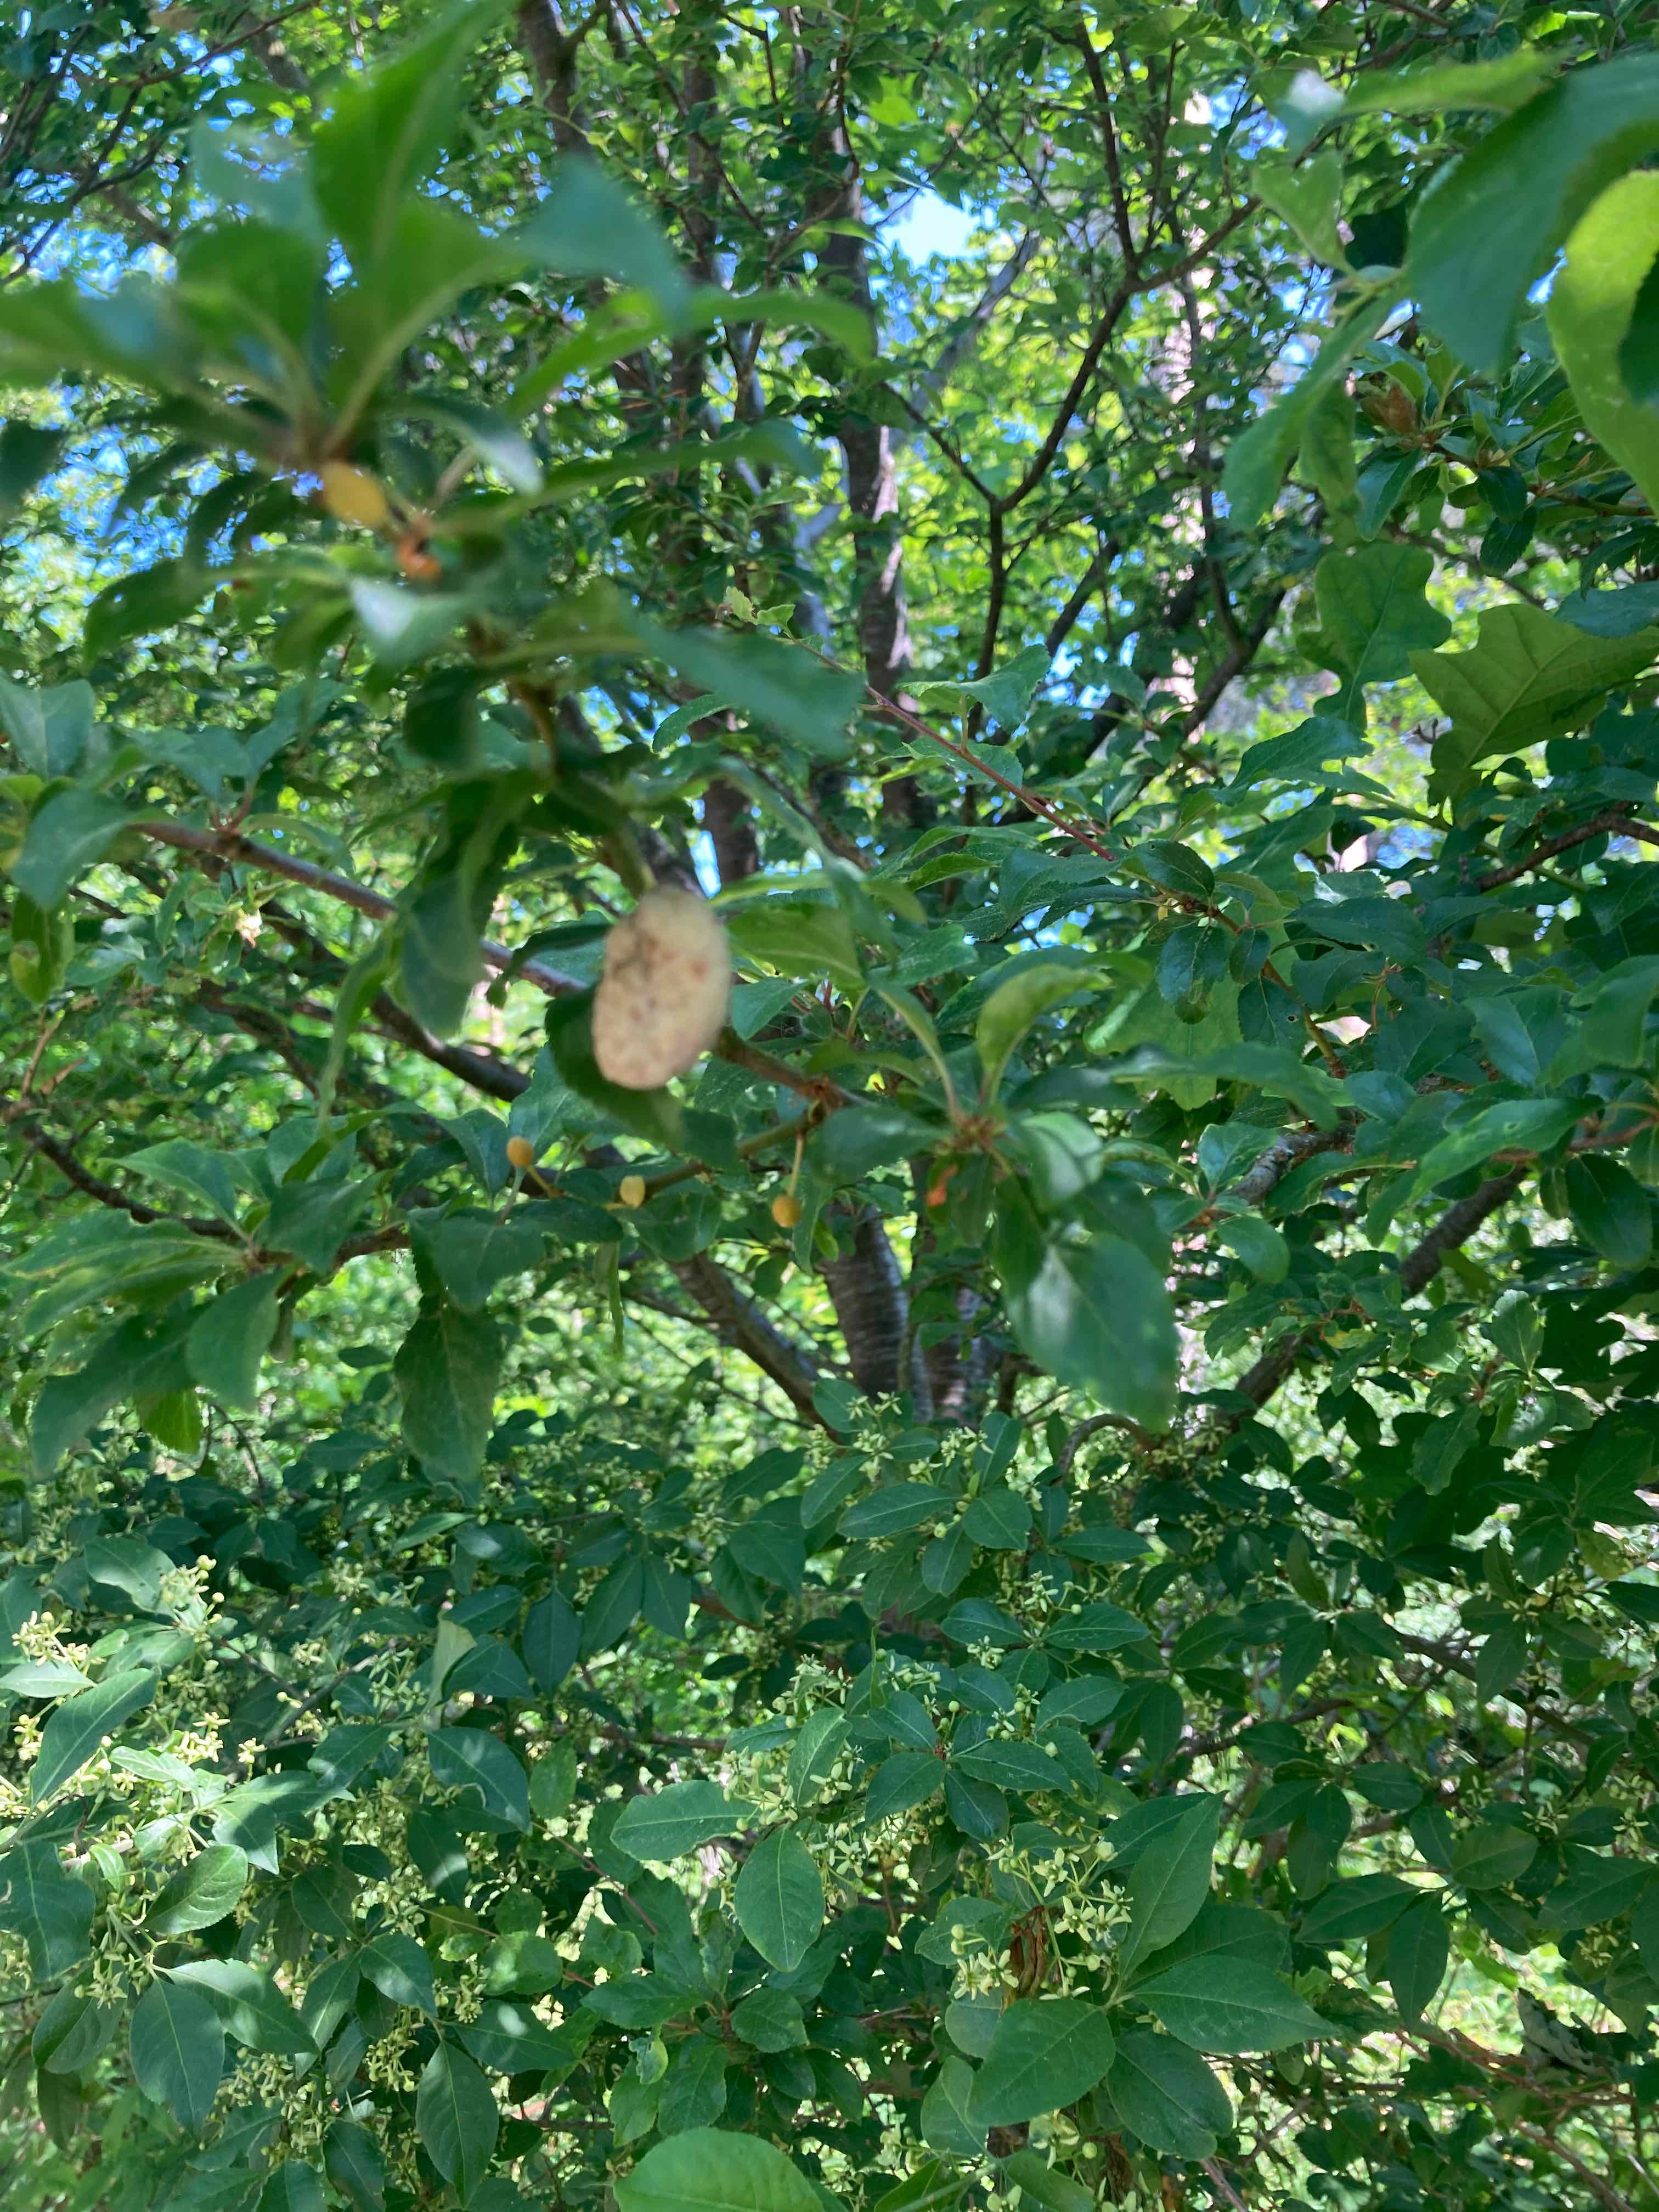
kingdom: Fungi
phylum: Ascomycota
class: Taphrinomycetes
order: Taphrinales
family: Taphrinaceae
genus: Taphrina
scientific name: Taphrina pruni
